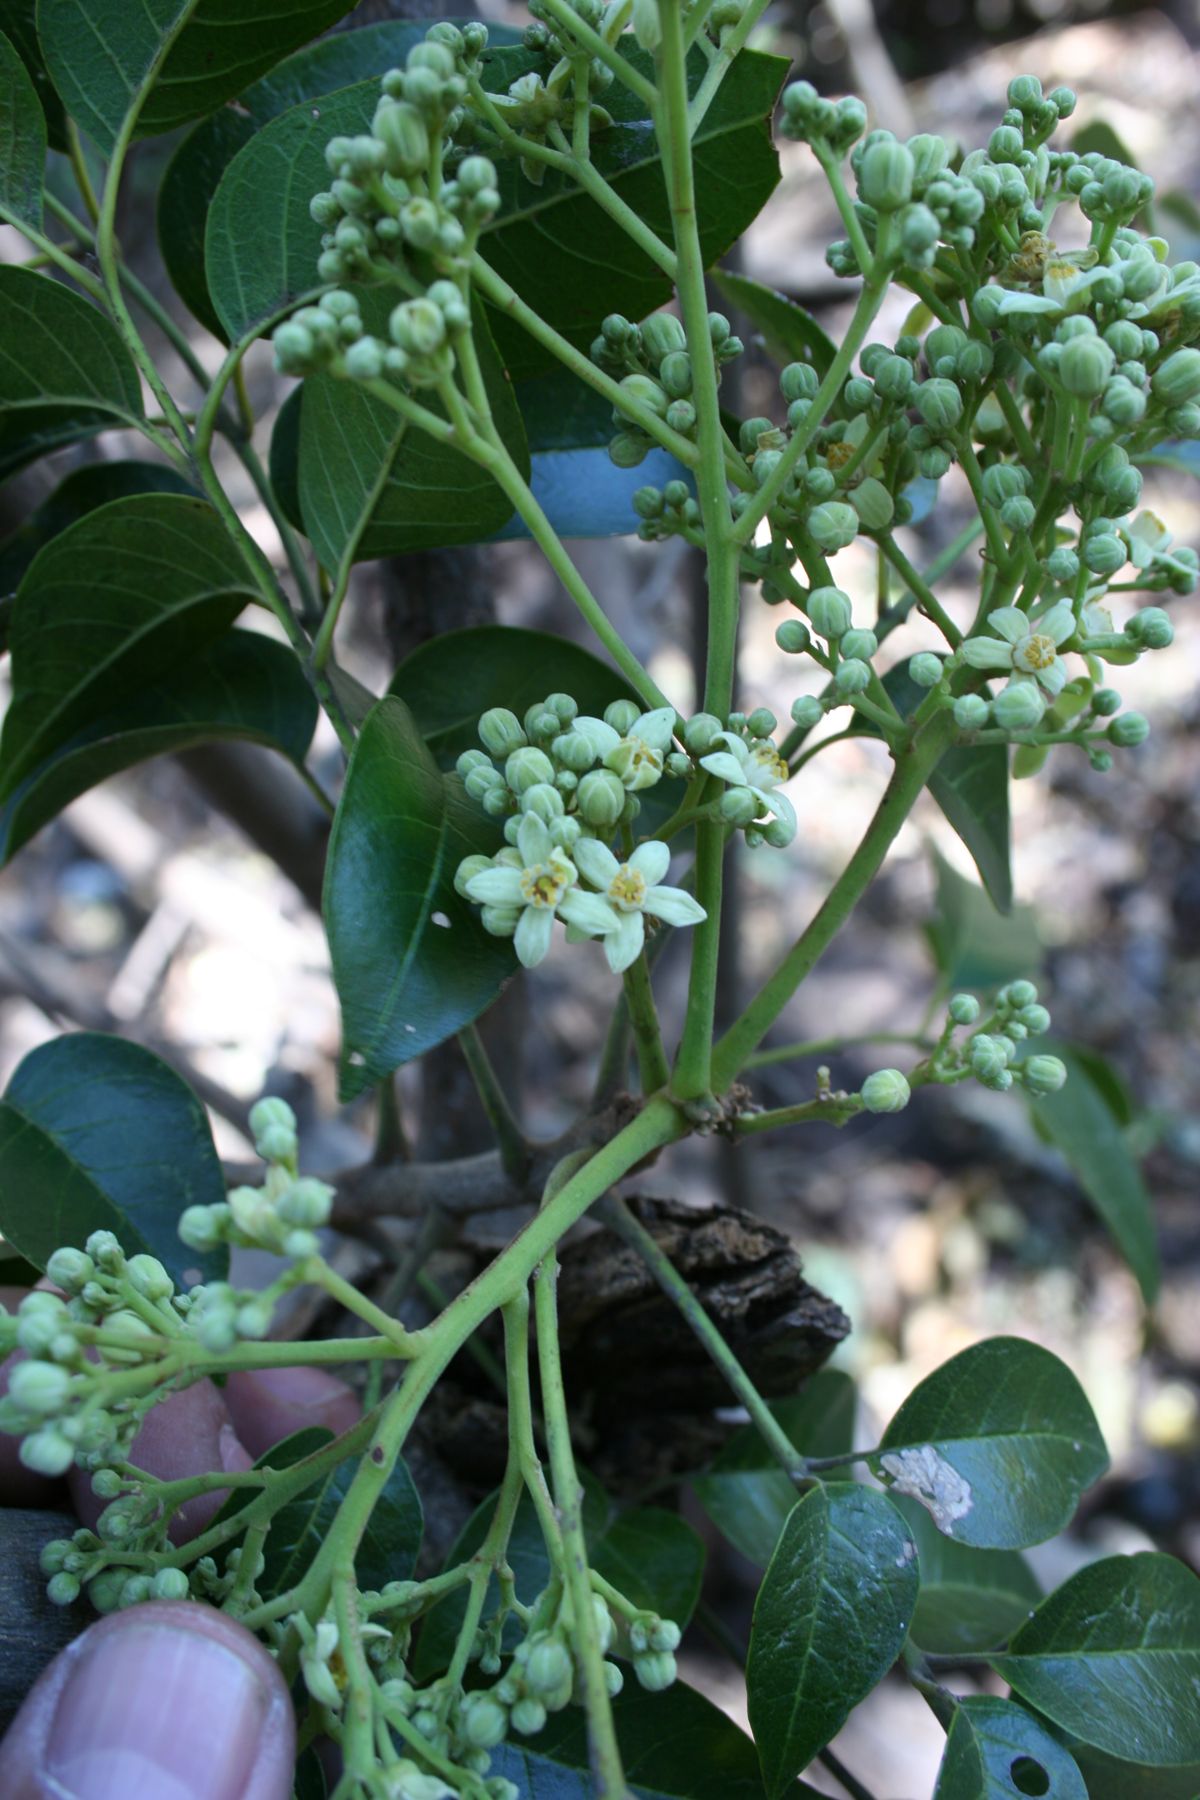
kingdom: Plantae
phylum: Tracheophyta
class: Magnoliopsida
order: Sapindales
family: Meliaceae
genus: Trichilia
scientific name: Trichilia glabra
